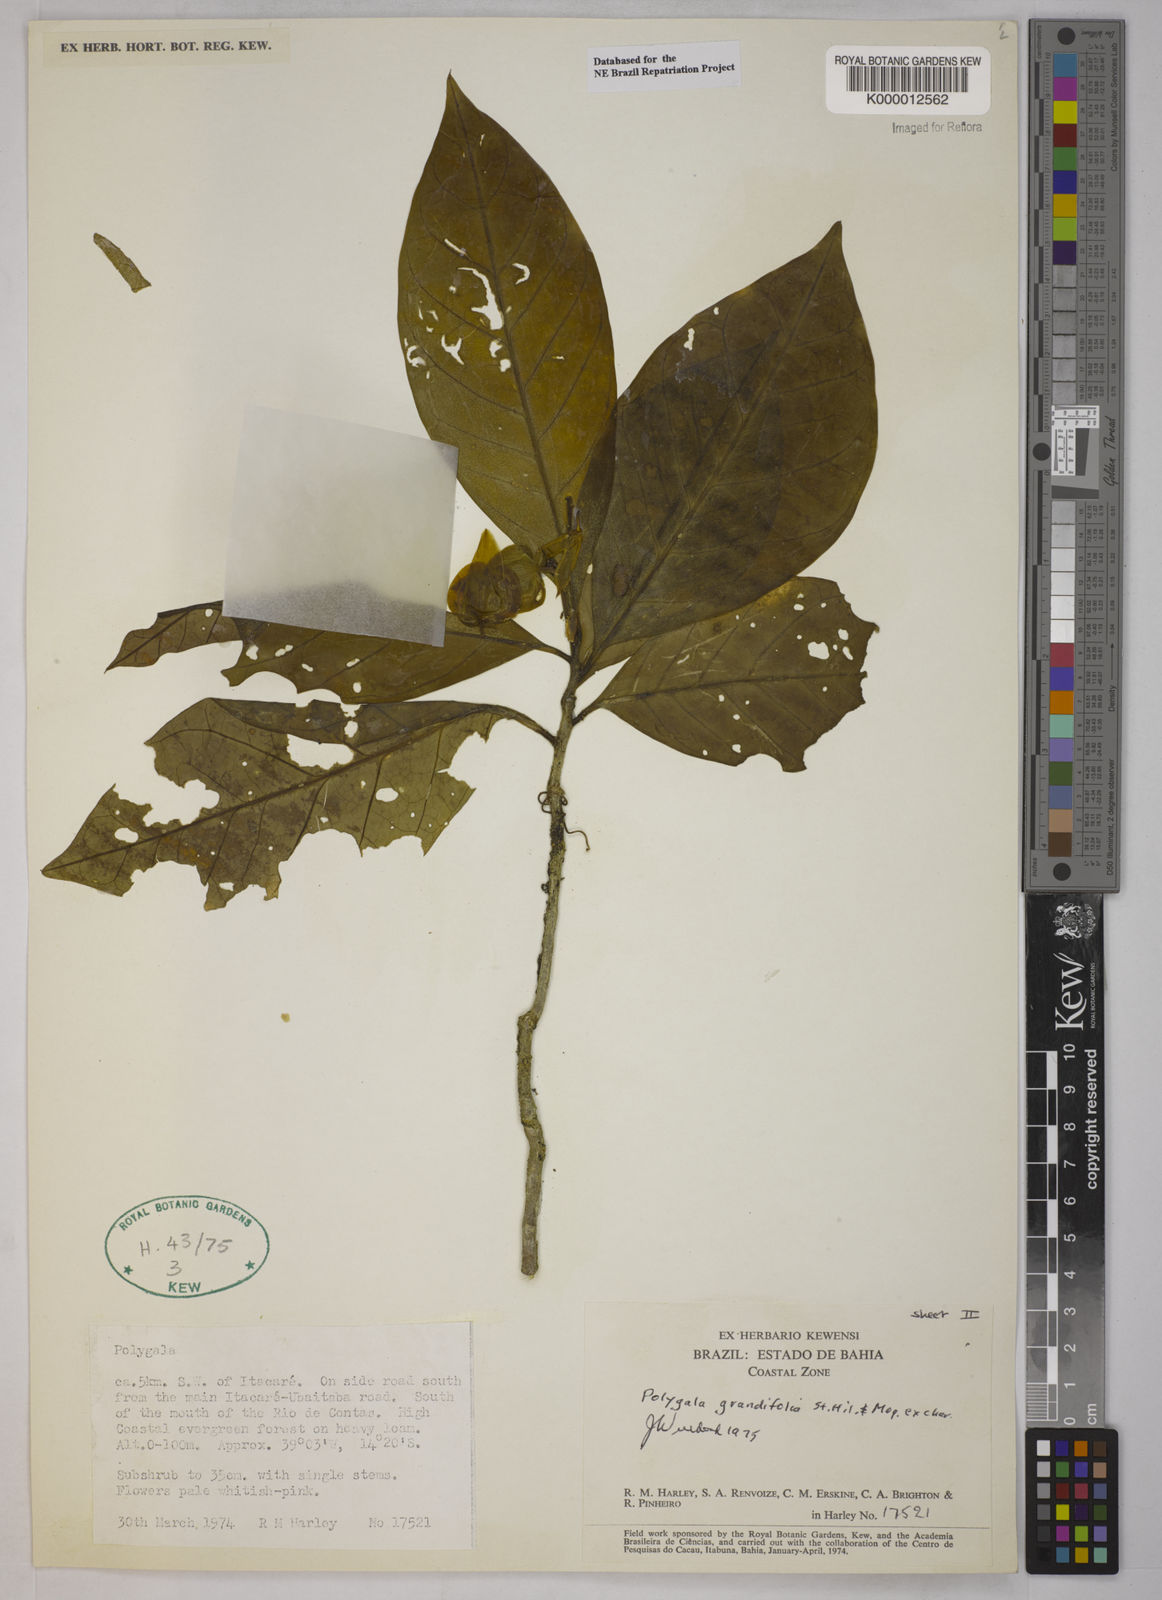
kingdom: Plantae
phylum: Tracheophyta
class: Magnoliopsida
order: Fabales
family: Polygalaceae
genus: Caamembeca
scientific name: Caamembeca grandifolia
